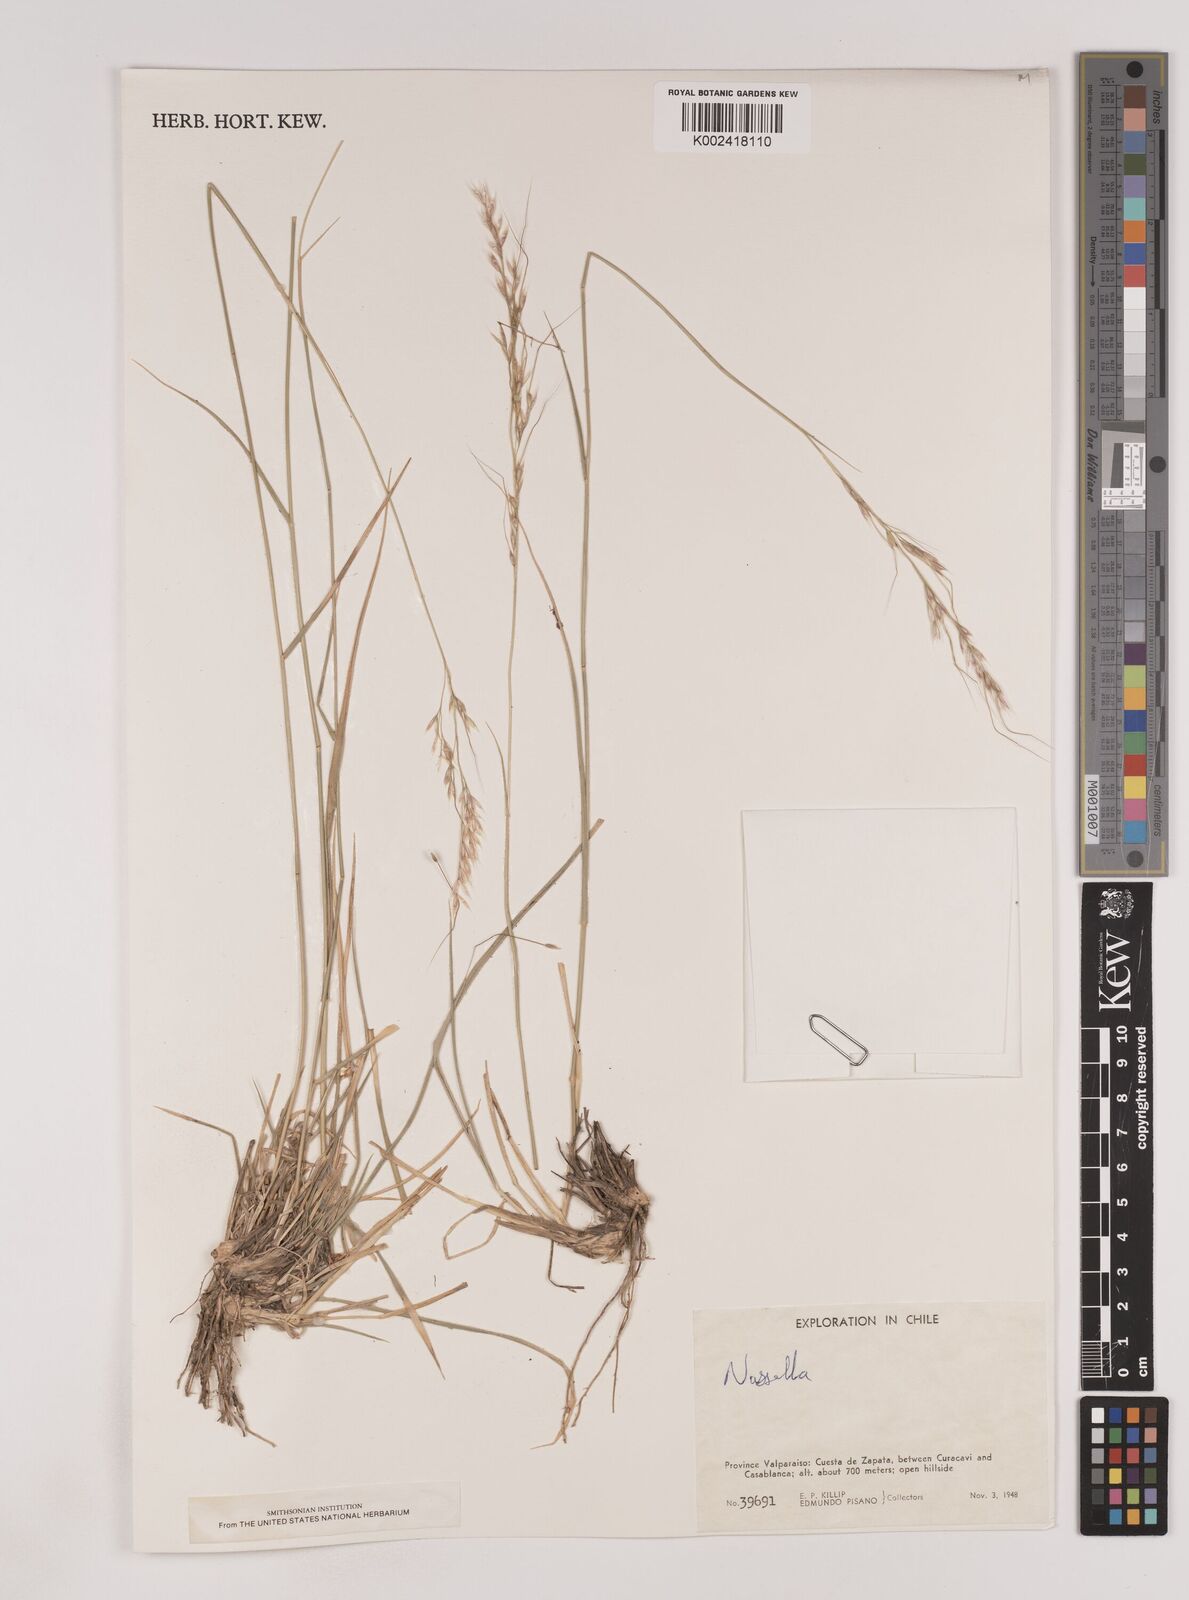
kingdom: Plantae
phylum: Tracheophyta
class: Liliopsida
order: Poales
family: Poaceae
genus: Nassella
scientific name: Nassella
